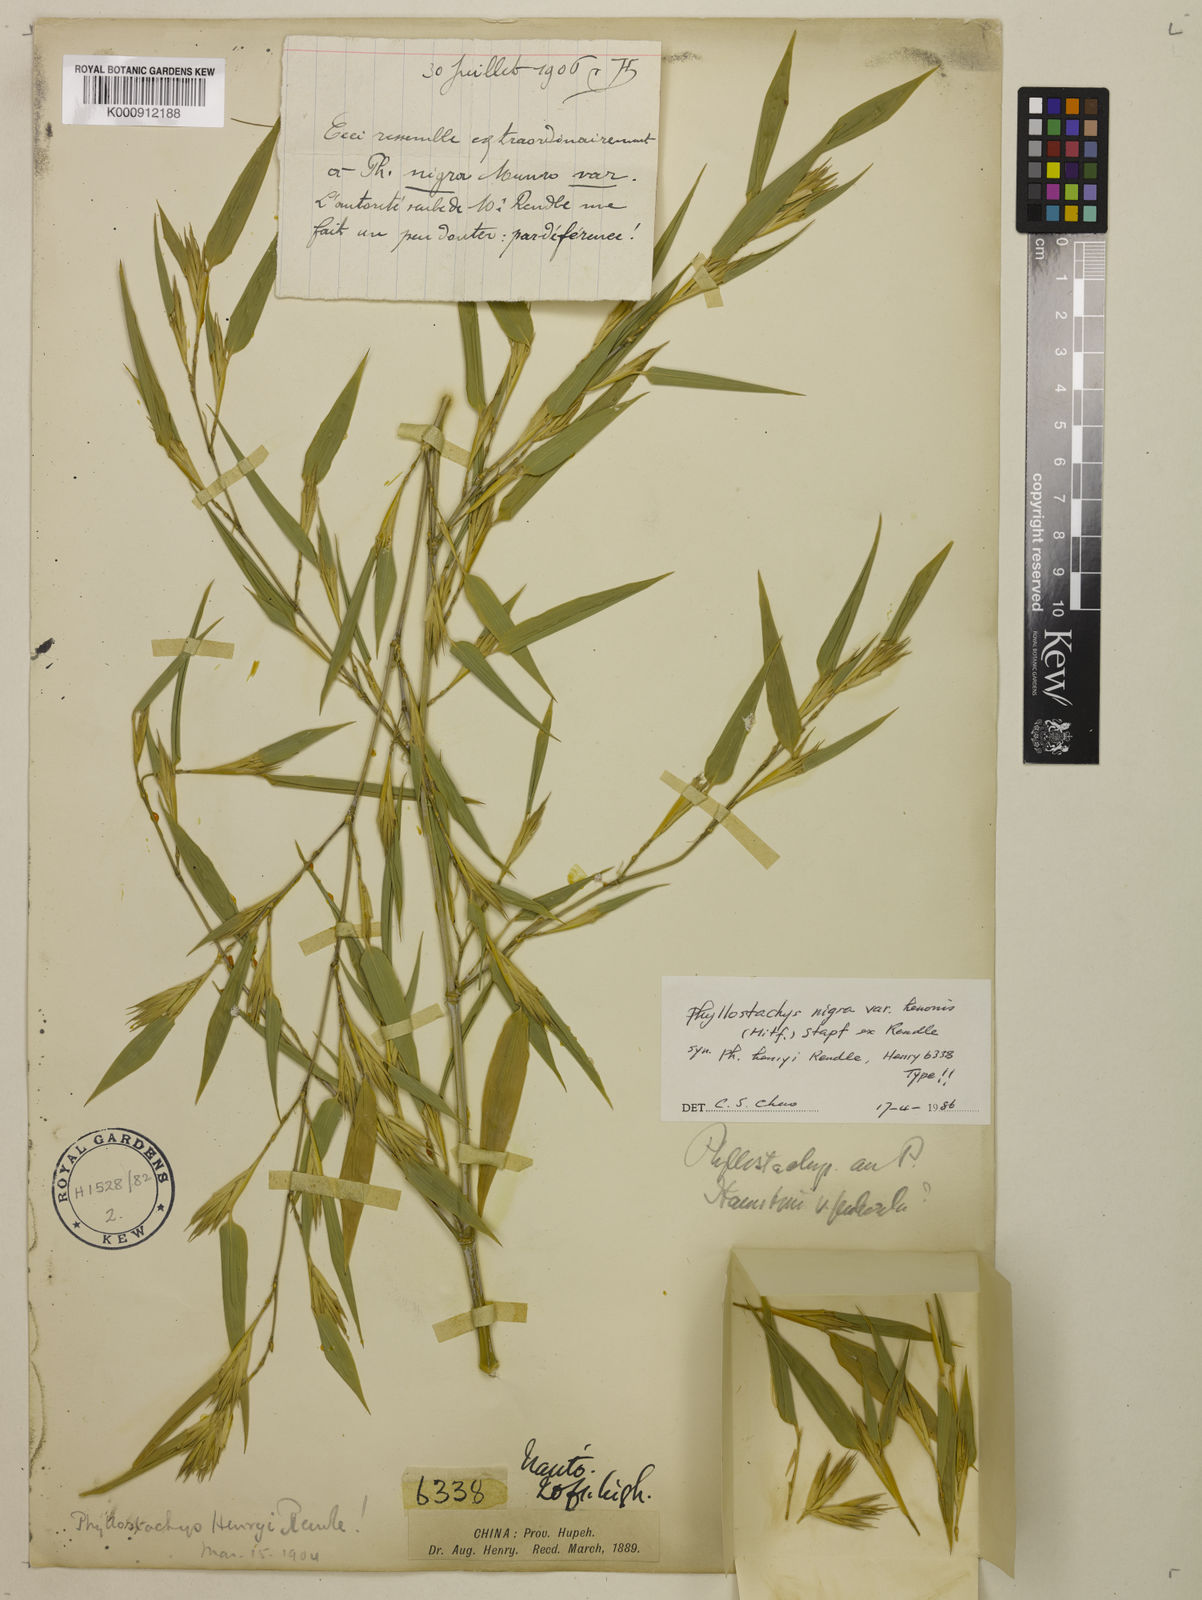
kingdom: Plantae
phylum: Tracheophyta
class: Liliopsida
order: Poales
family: Poaceae
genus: Phyllostachys
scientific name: Phyllostachys nigra
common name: Black bamboo
